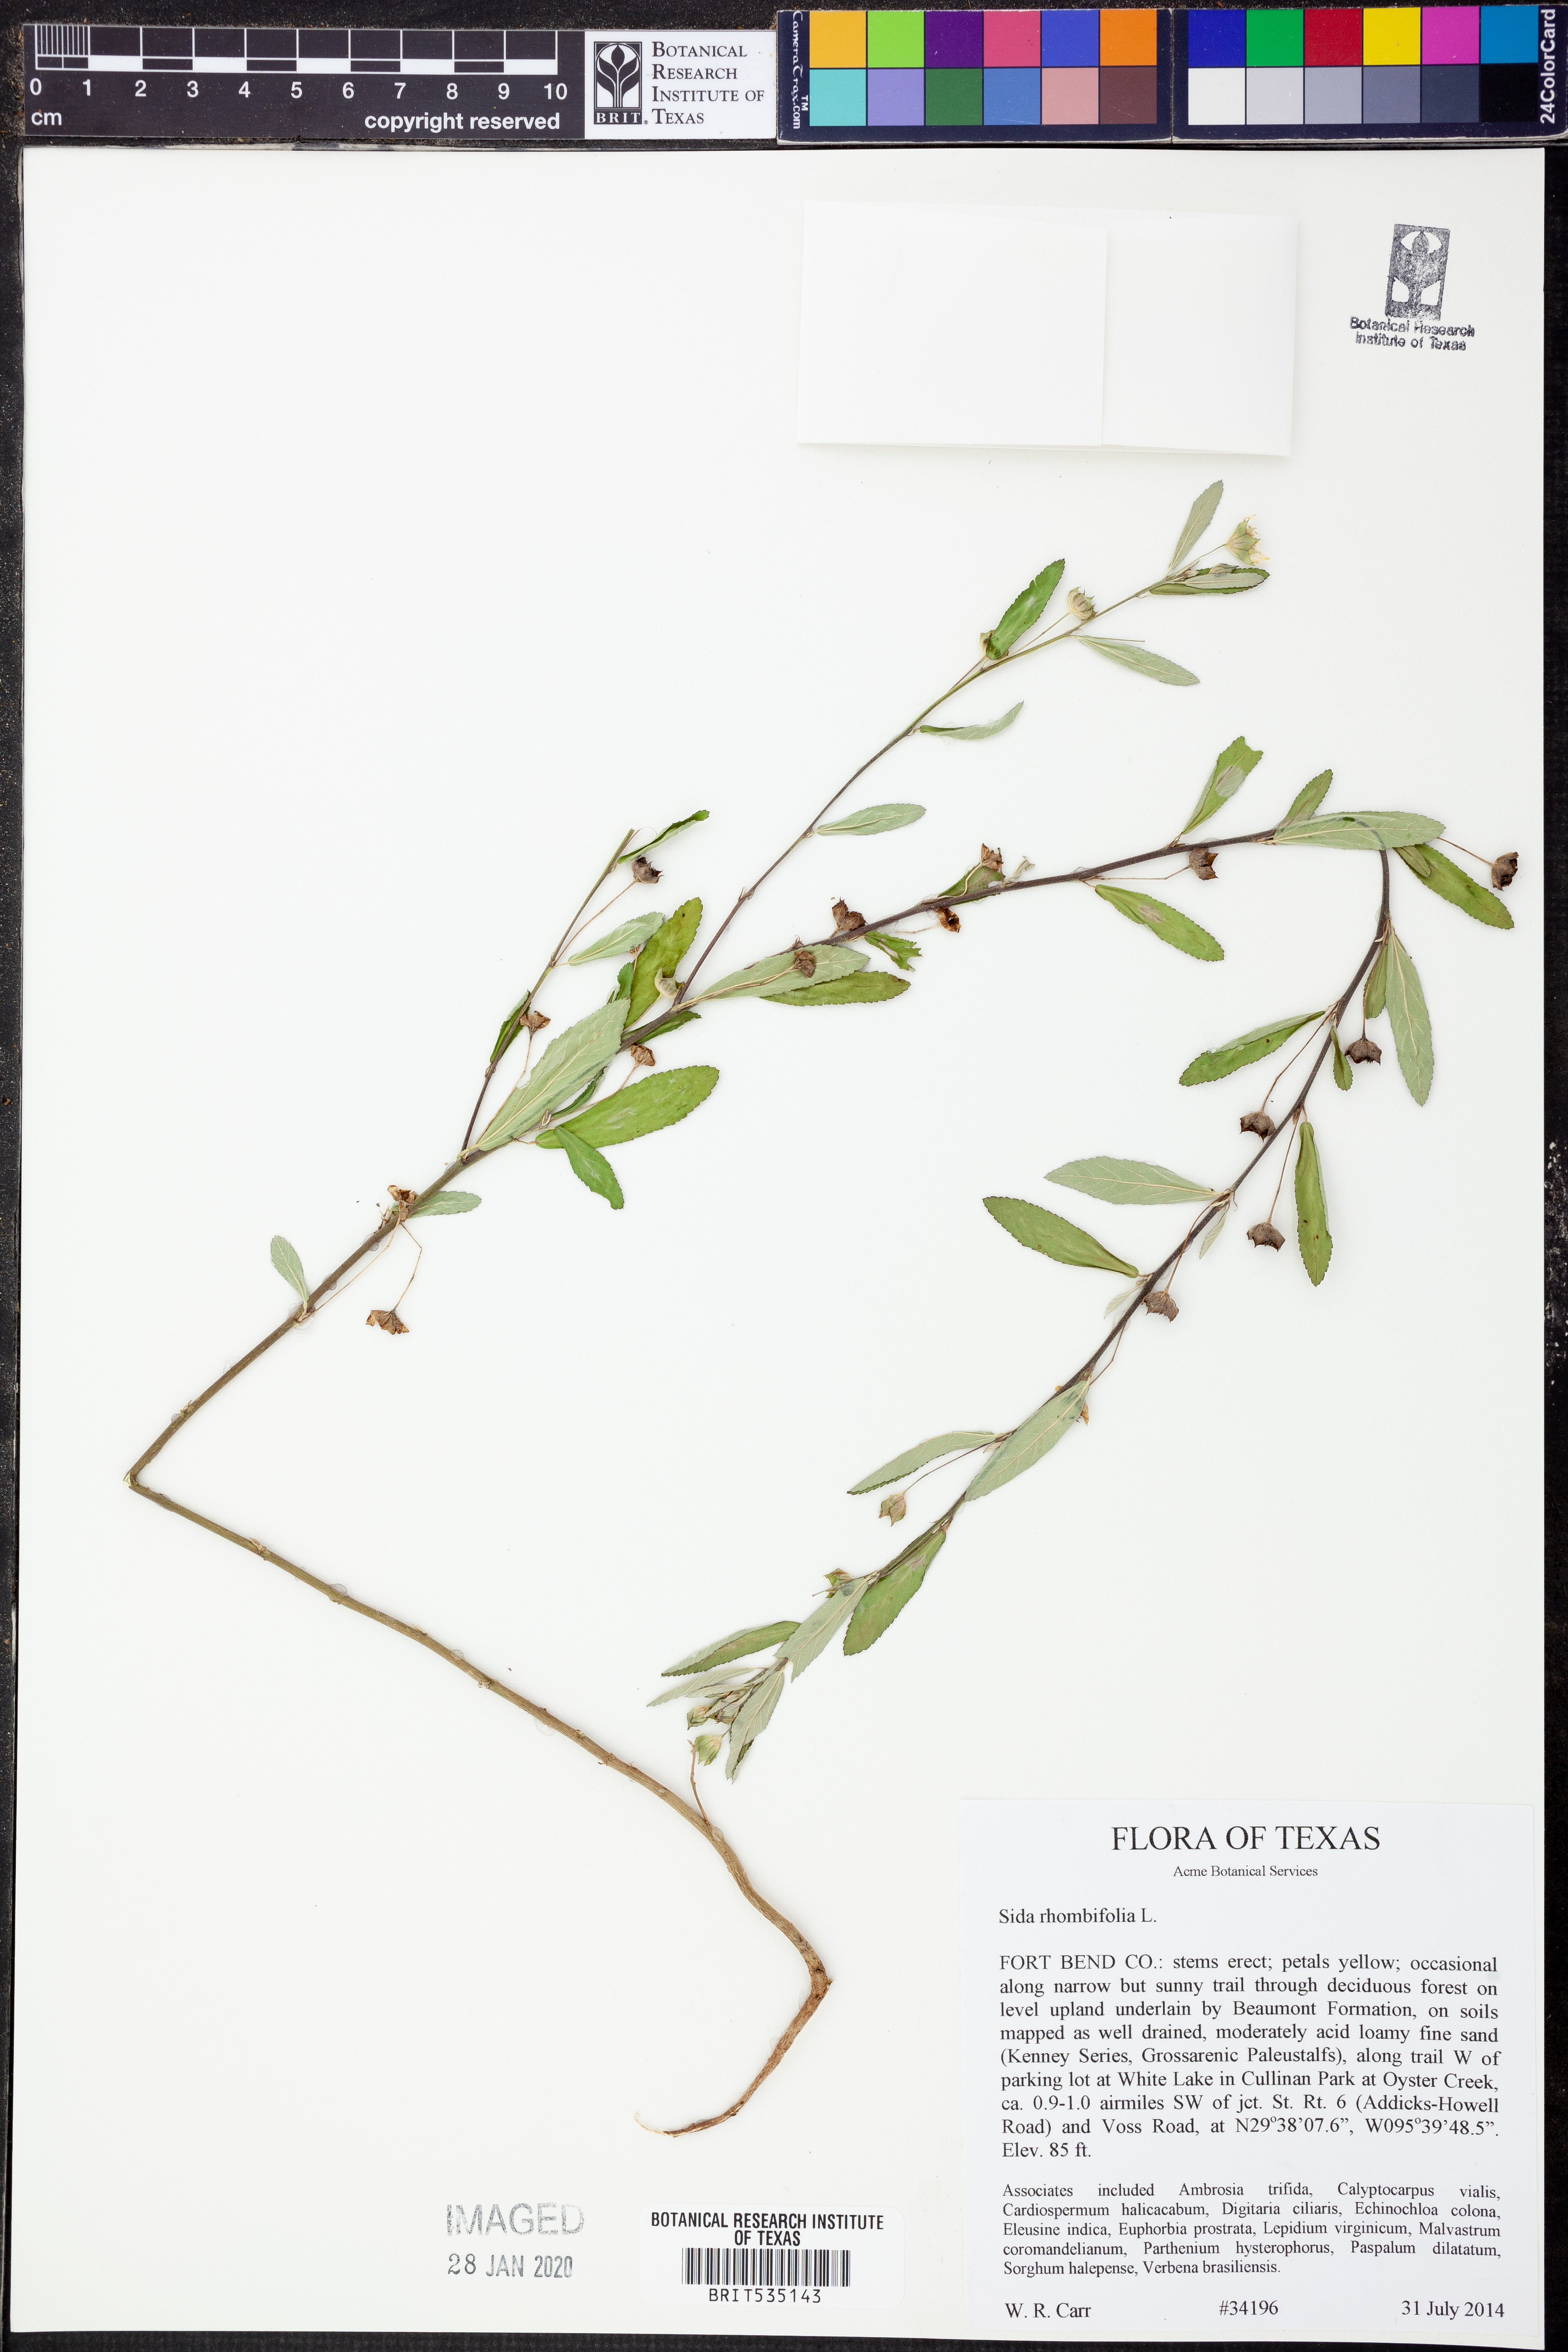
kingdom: Plantae
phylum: Tracheophyta
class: Magnoliopsida
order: Malvales
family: Malvaceae
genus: Sida
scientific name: Sida rhombifolia
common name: Queensland-hemp
